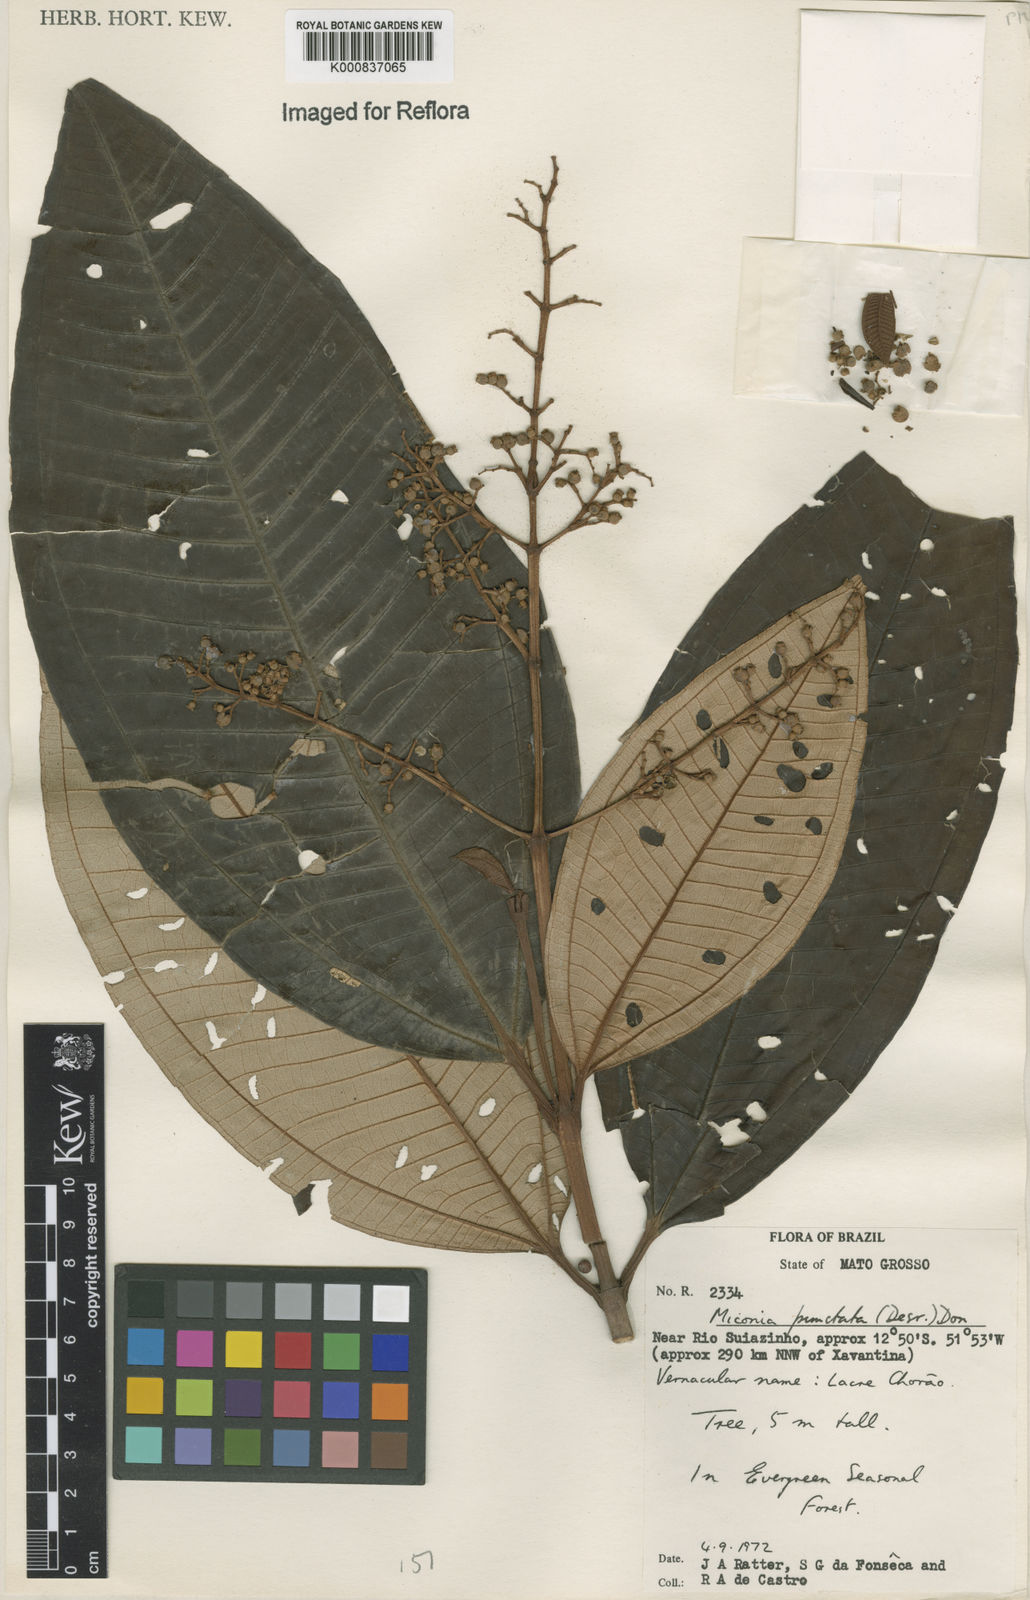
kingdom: Plantae
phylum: Tracheophyta
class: Magnoliopsida
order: Myrtales
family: Melastomataceae
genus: Miconia
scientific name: Miconia punctata
